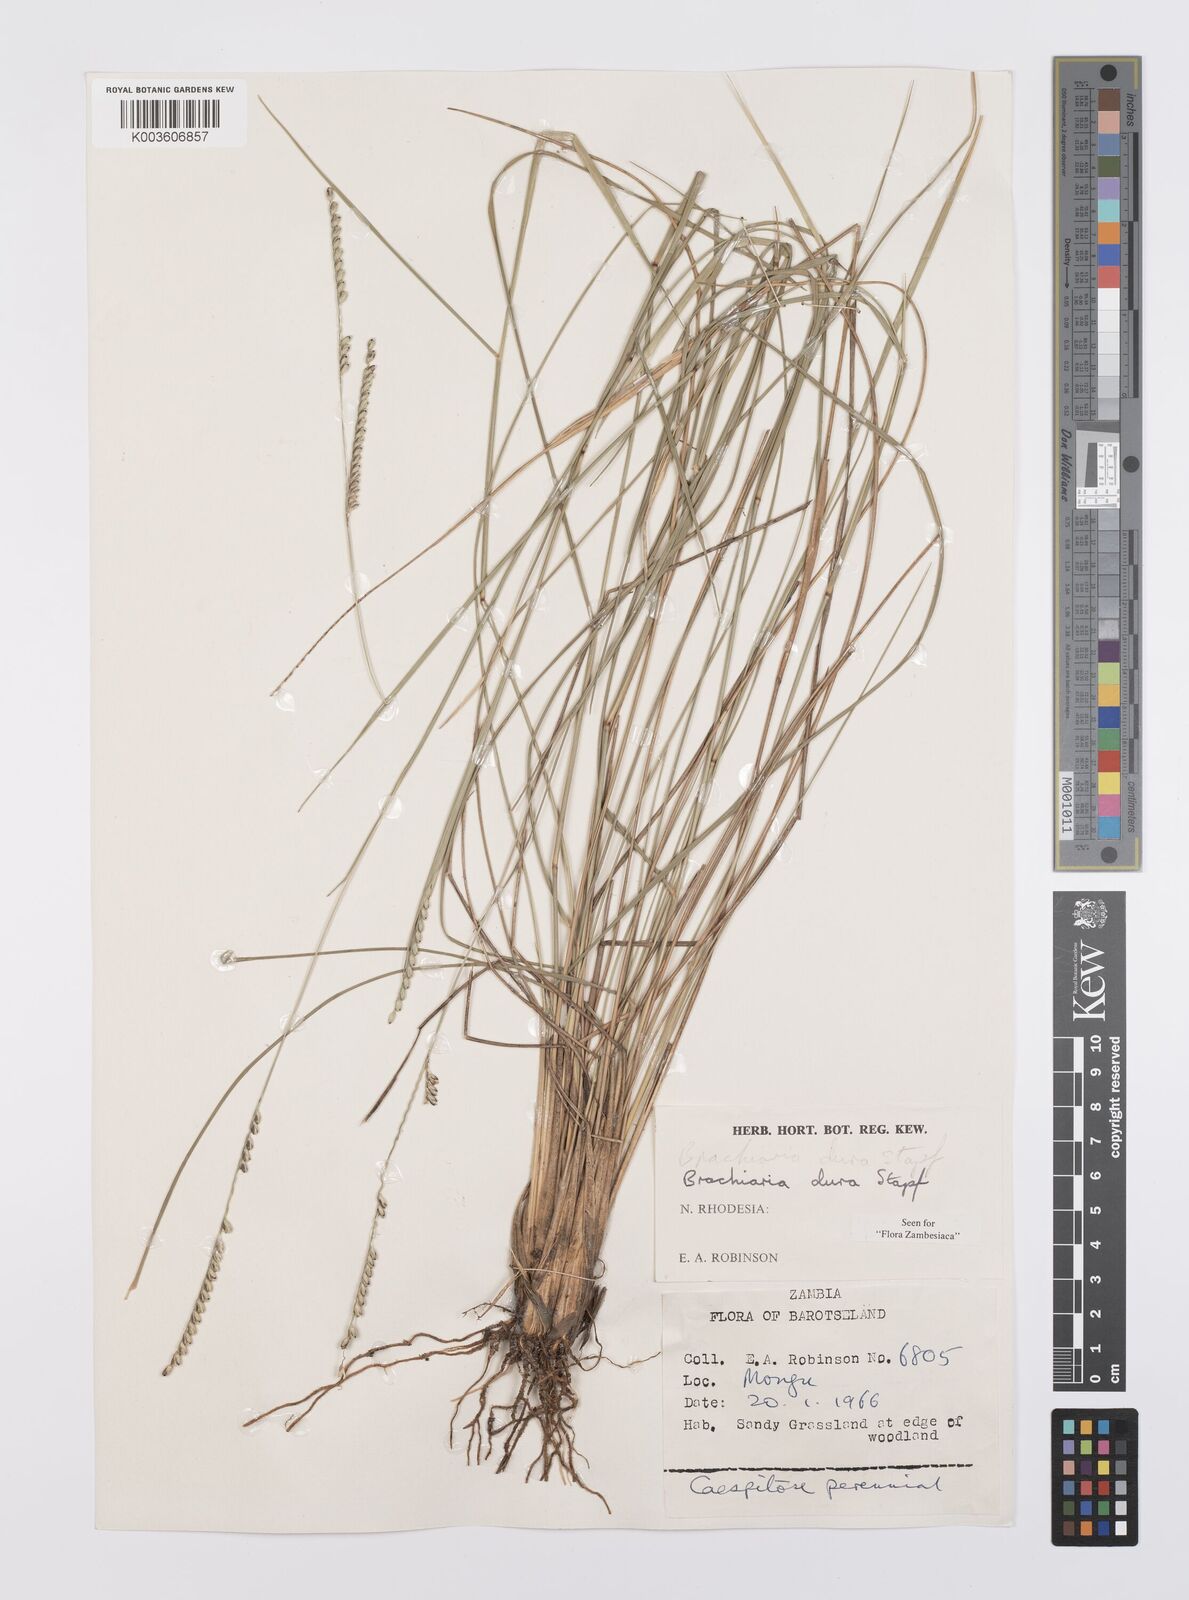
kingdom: Plantae
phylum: Tracheophyta
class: Liliopsida
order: Poales
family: Poaceae
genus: Urochloa
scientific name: Urochloa dura
